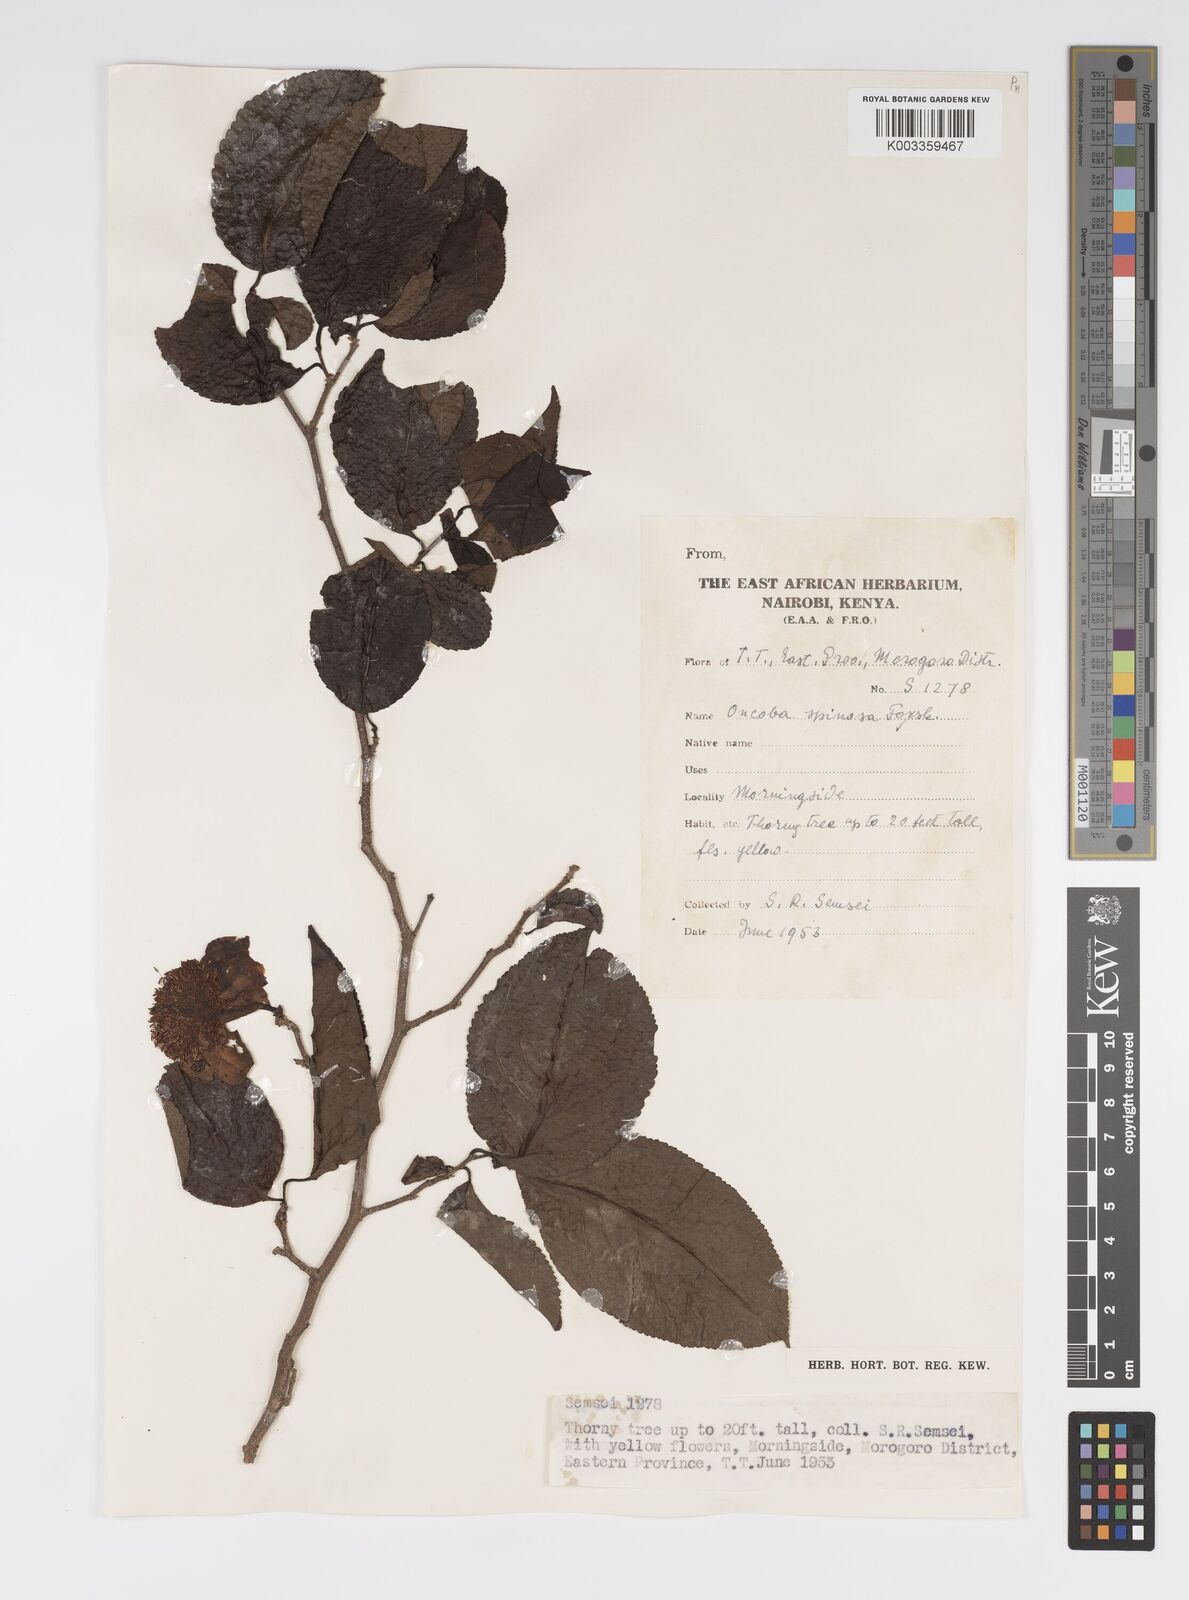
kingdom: Plantae
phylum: Tracheophyta
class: Magnoliopsida
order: Malpighiales
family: Salicaceae
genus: Oncoba
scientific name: Oncoba spinosa
